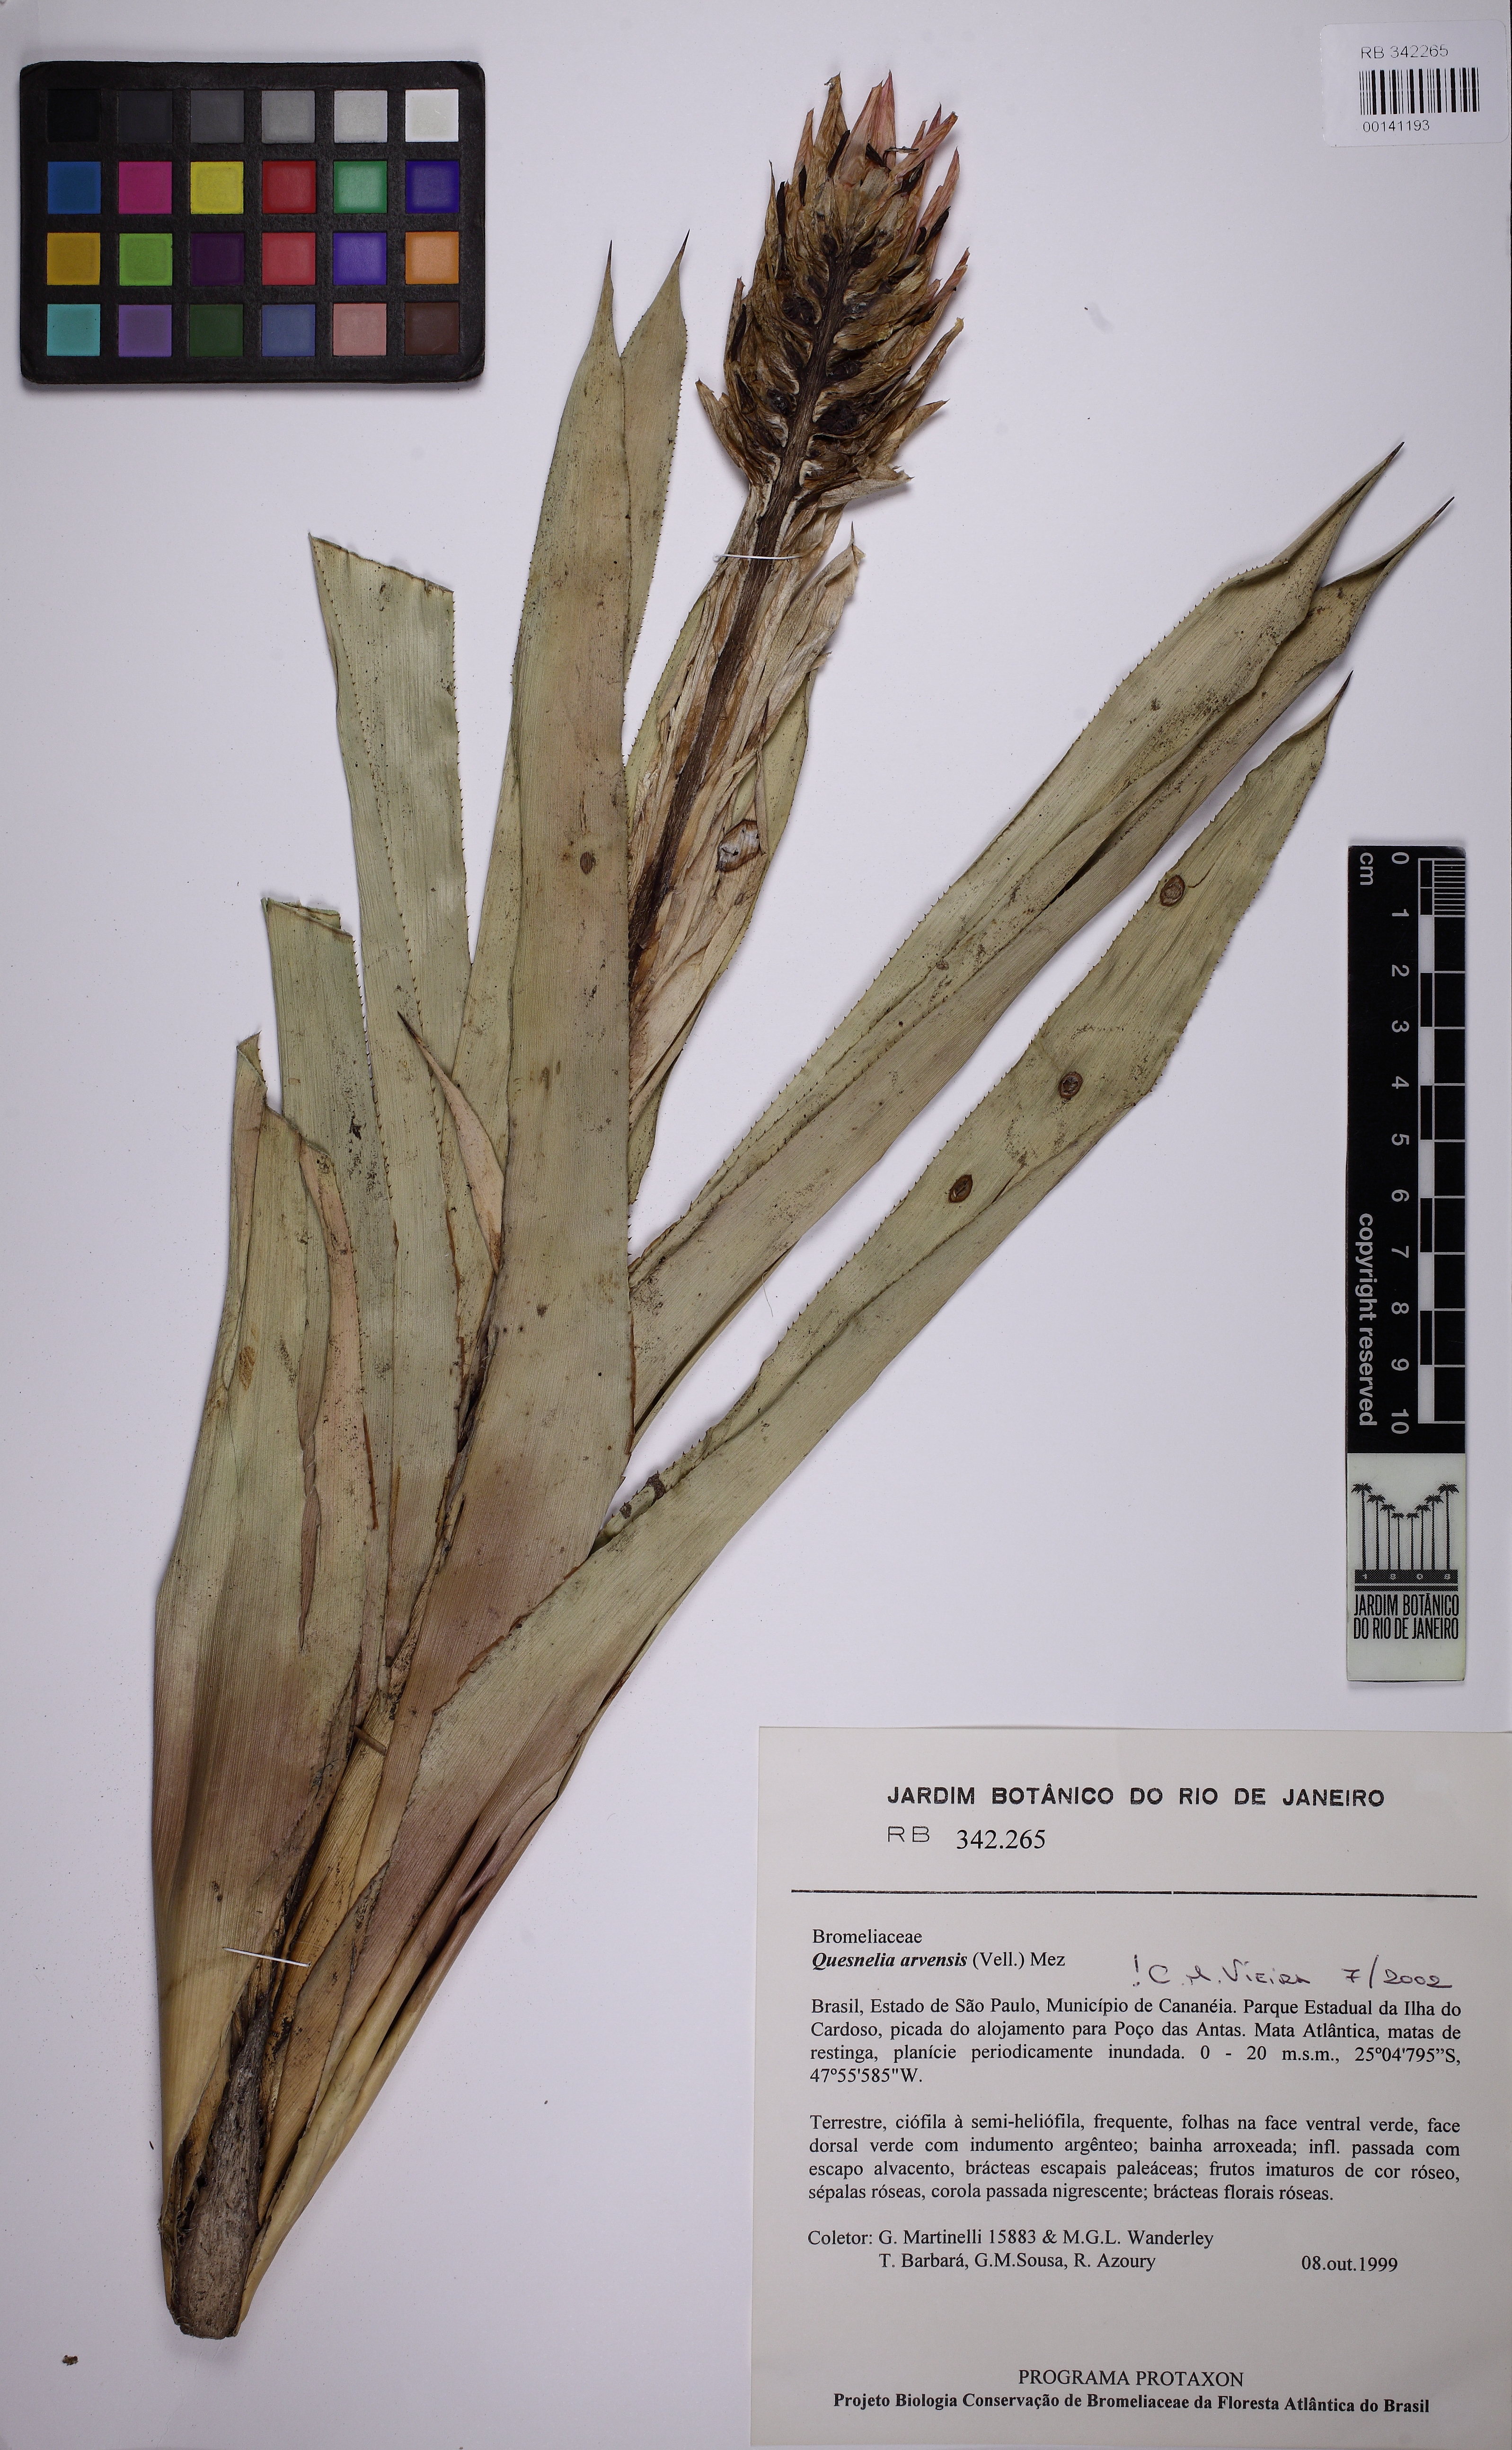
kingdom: Plantae
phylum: Tracheophyta
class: Liliopsida
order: Poales
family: Bromeliaceae
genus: Quesnelia
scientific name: Quesnelia arvensis
